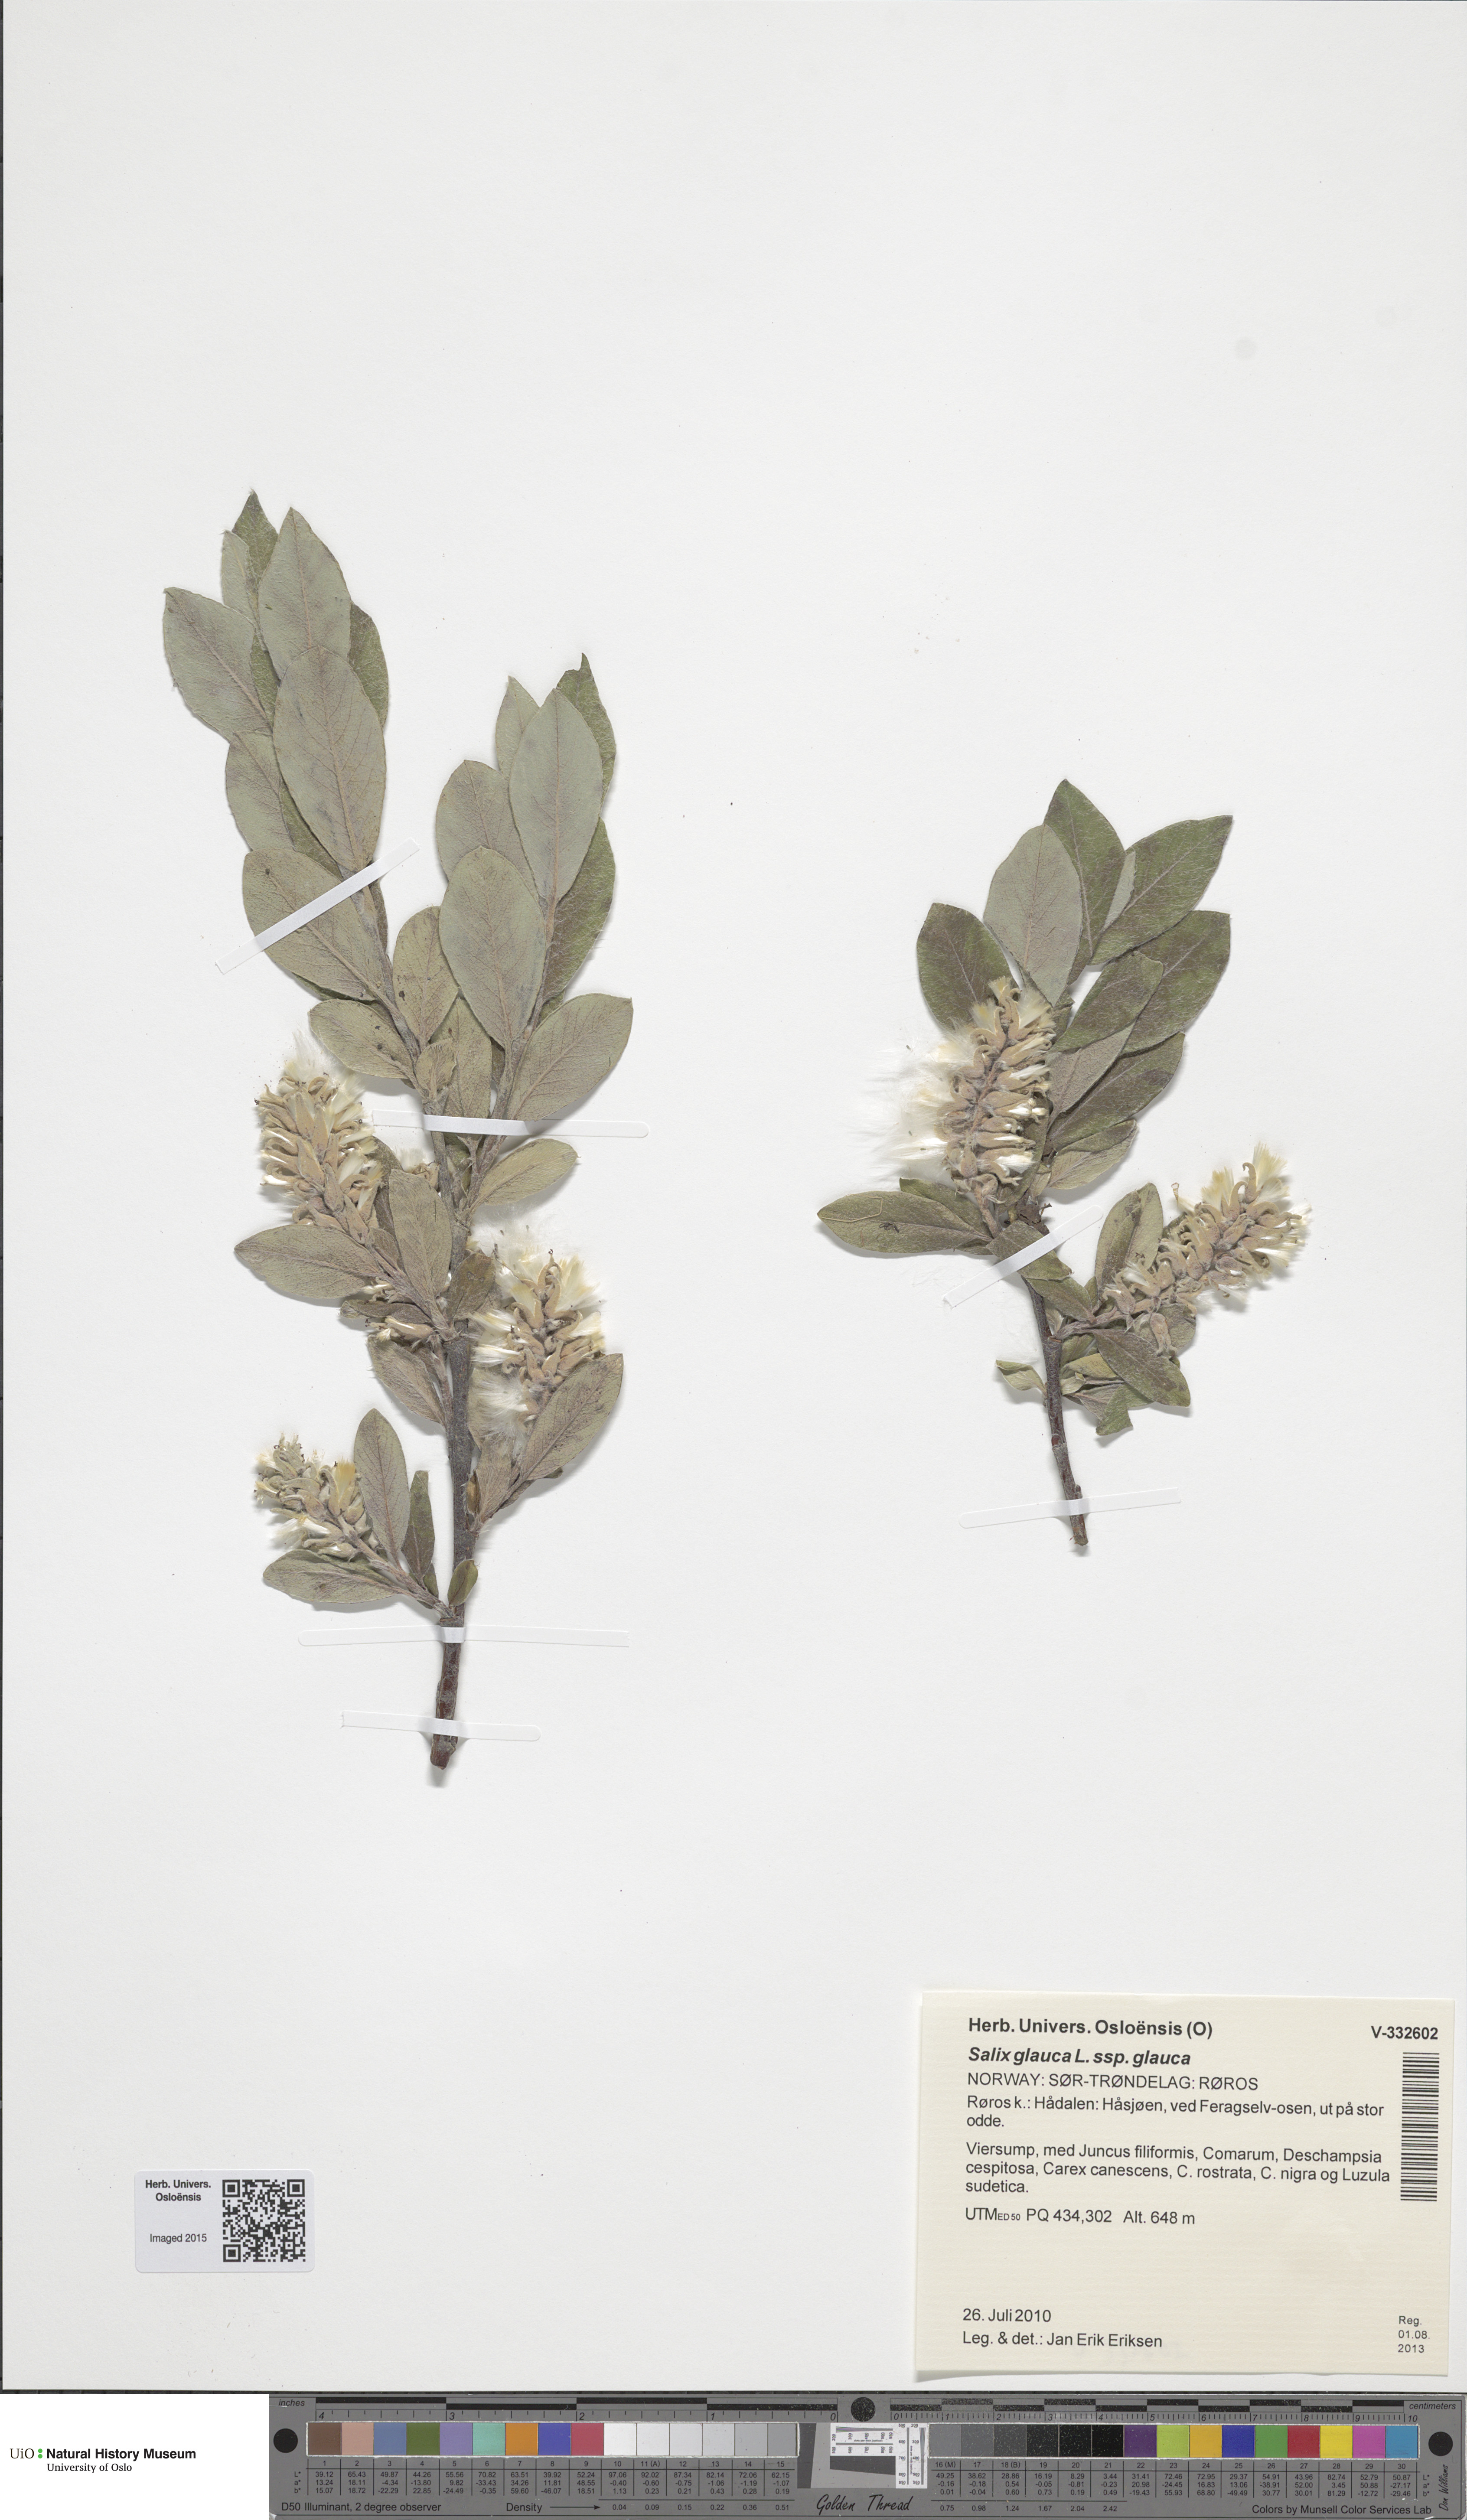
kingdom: Plantae
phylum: Tracheophyta
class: Magnoliopsida
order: Malpighiales
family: Salicaceae
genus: Salix
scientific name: Salix glauca
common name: Glaucous willow
